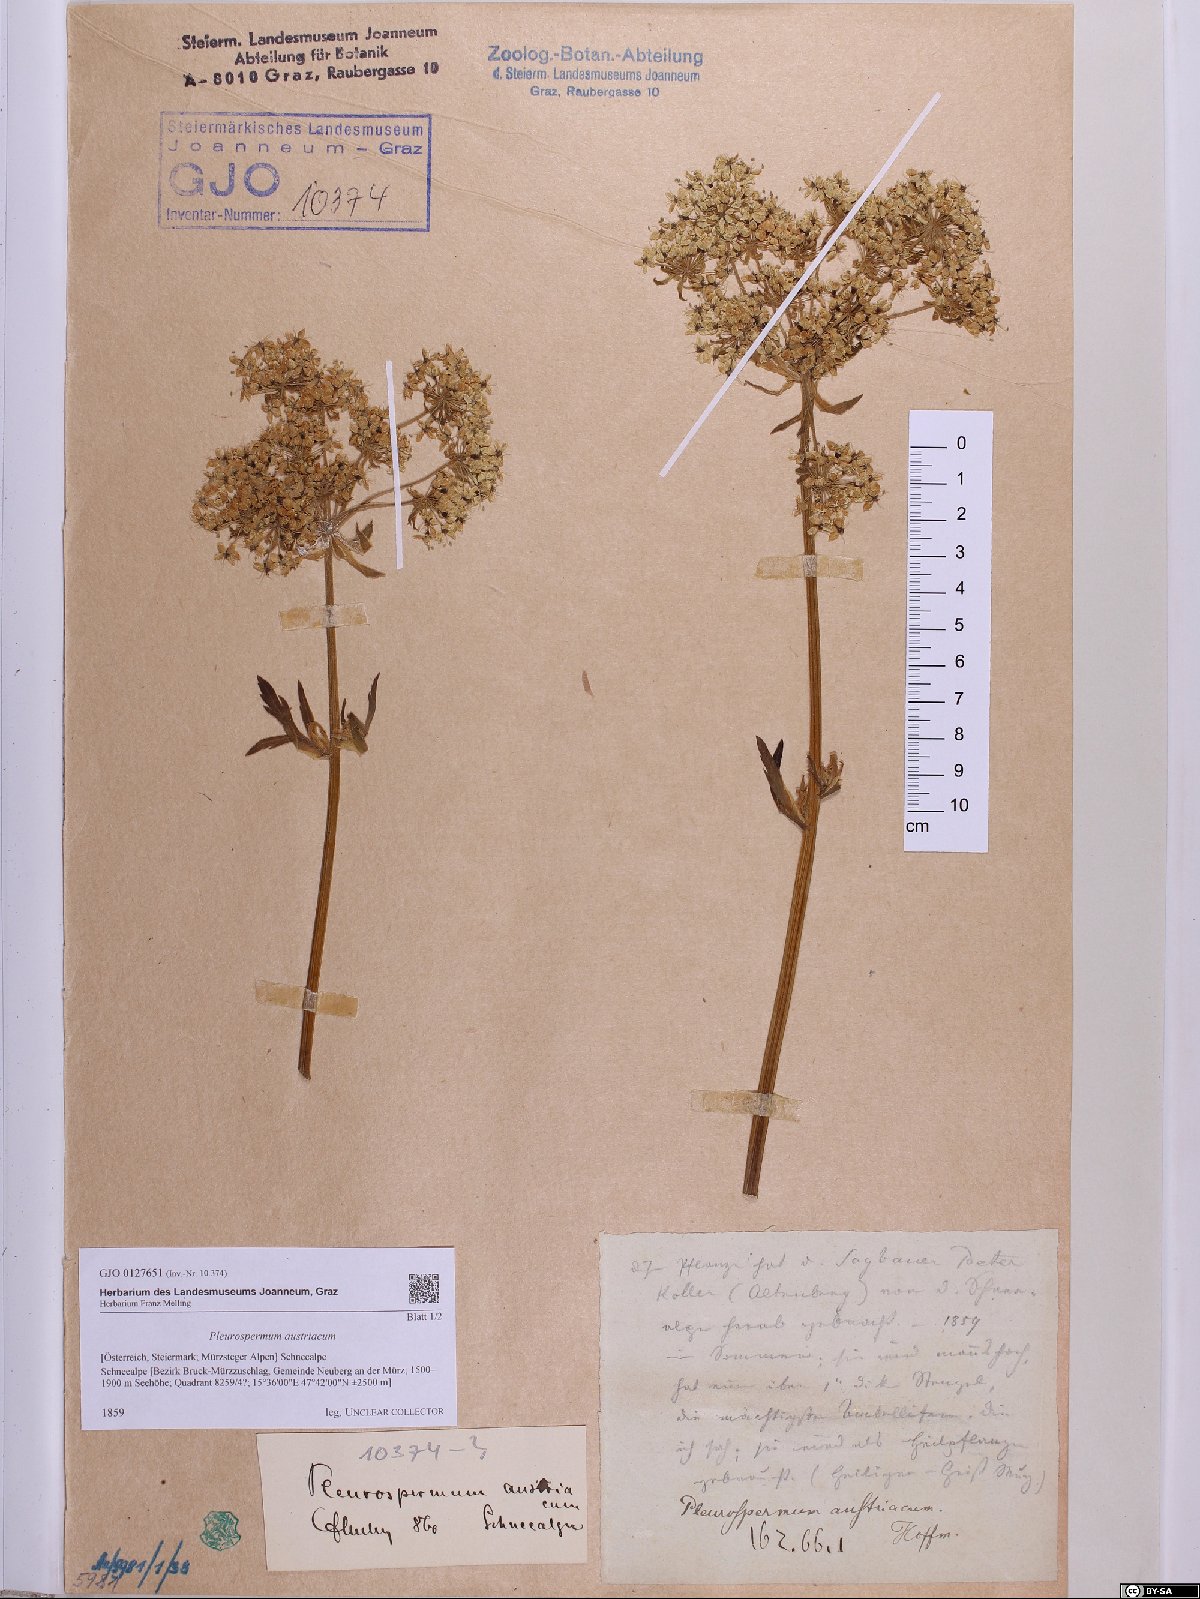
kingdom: Plantae
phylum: Tracheophyta
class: Magnoliopsida
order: Apiales
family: Apiaceae
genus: Pleurospermum
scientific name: Pleurospermum austriacum
